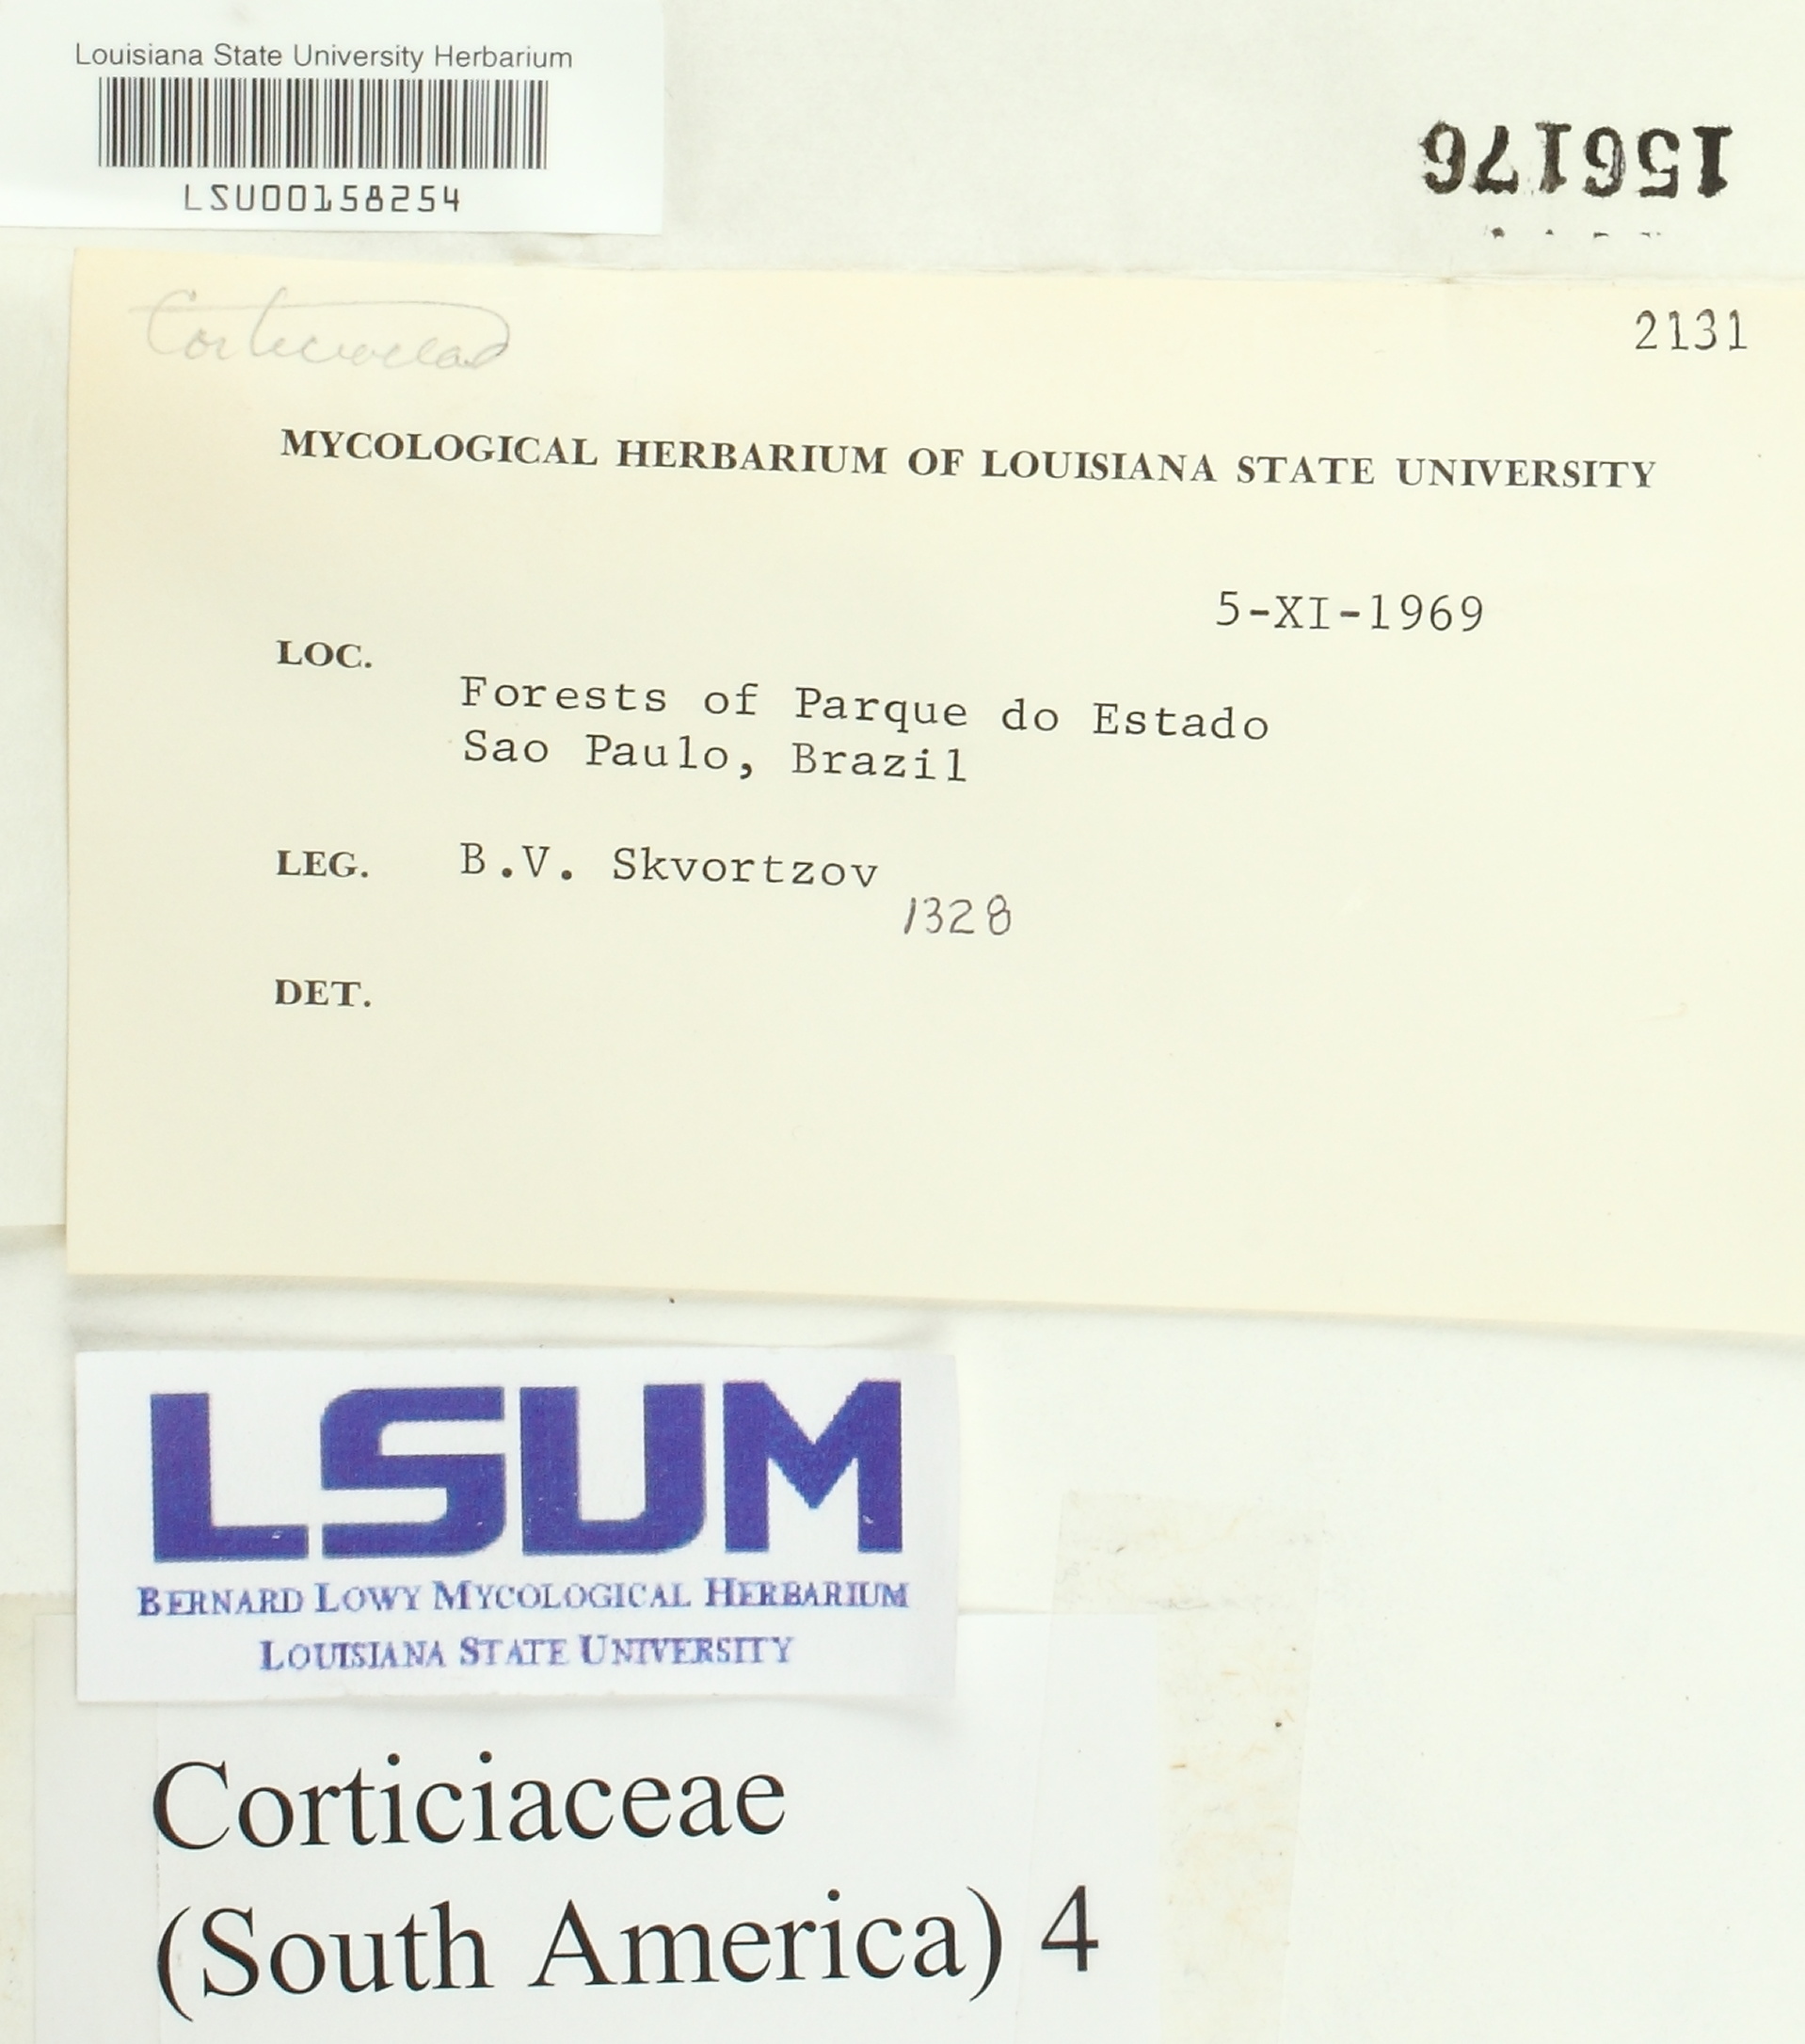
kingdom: Fungi
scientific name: Fungi
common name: Fungi
